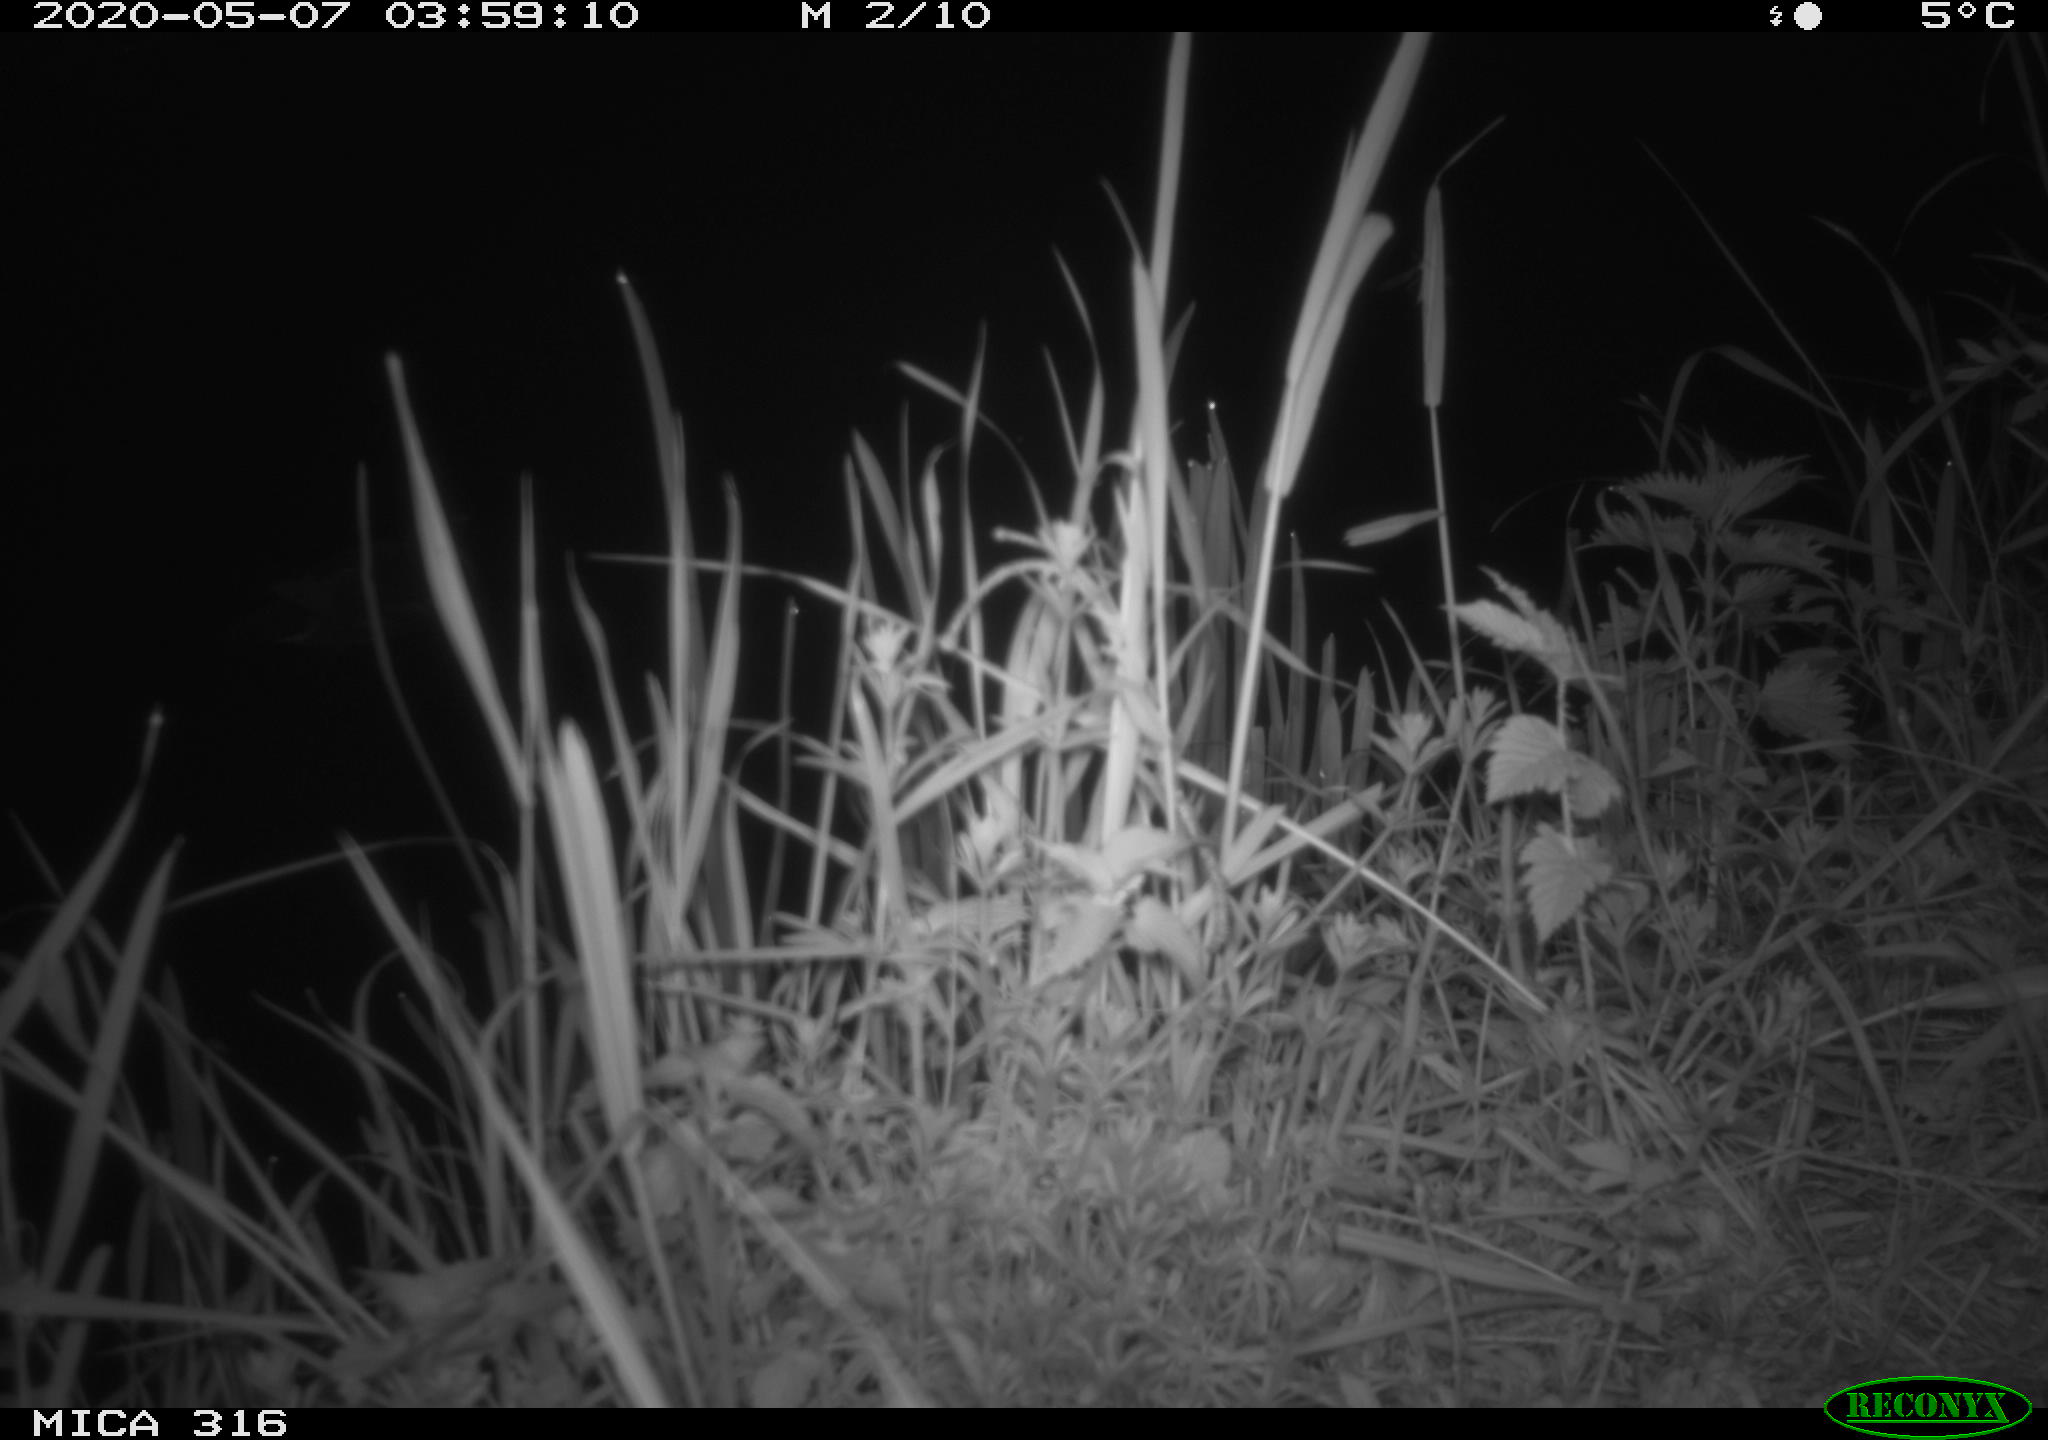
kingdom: Animalia
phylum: Chordata
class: Aves
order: Gruiformes
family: Rallidae
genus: Gallinula
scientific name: Gallinula chloropus
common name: Common moorhen
